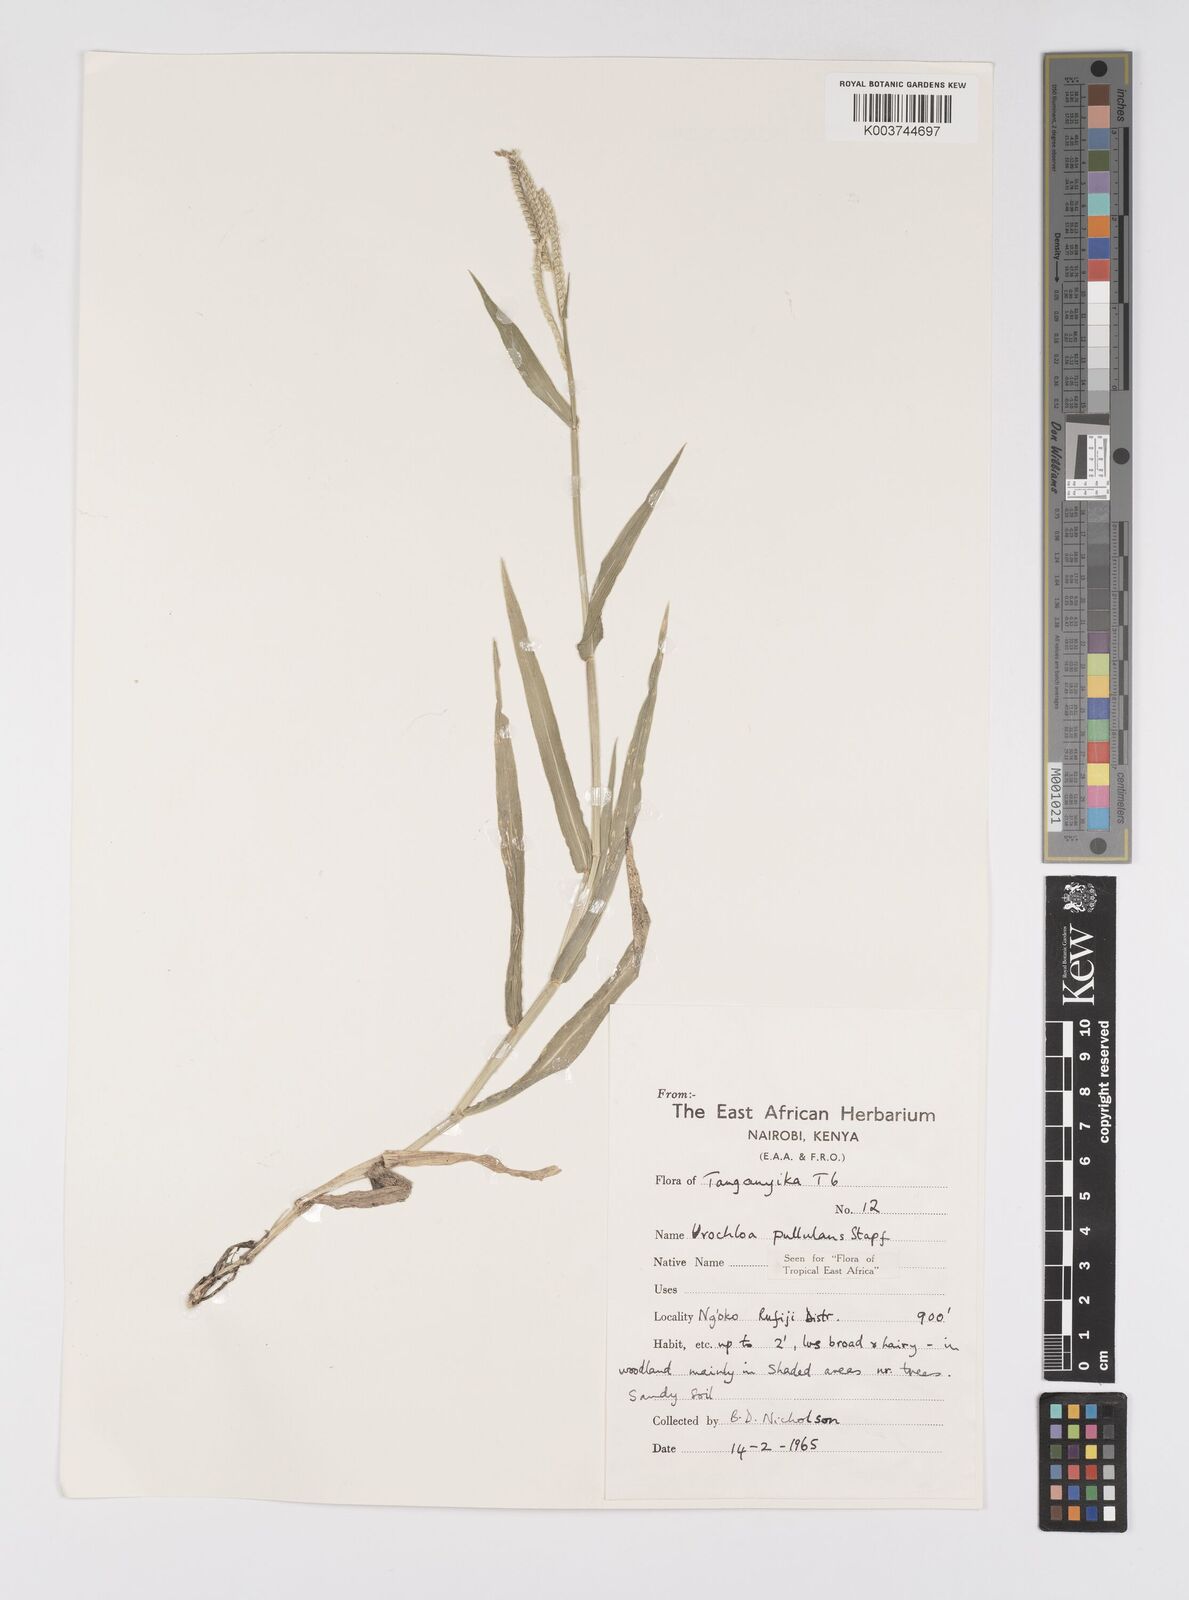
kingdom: Plantae
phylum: Tracheophyta
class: Liliopsida
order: Poales
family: Poaceae
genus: Urochloa
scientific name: Urochloa trichopus
